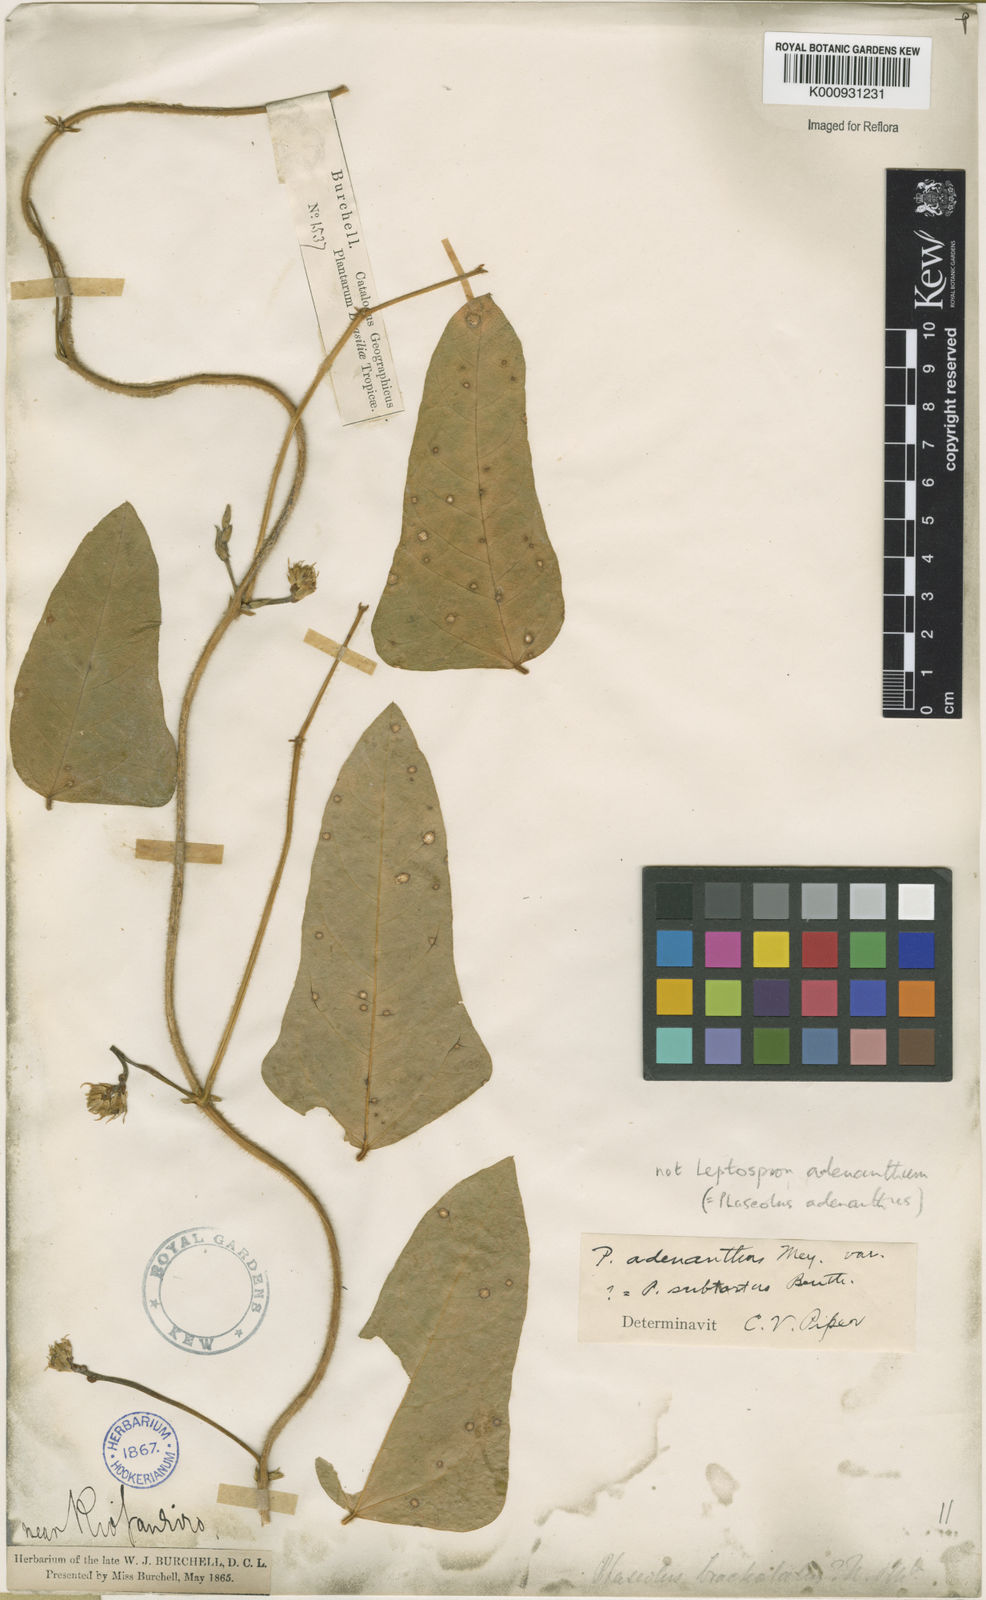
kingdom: Plantae
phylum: Tracheophyta
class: Magnoliopsida
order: Fabales
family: Fabaceae
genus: Vigna
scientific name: Vigna
